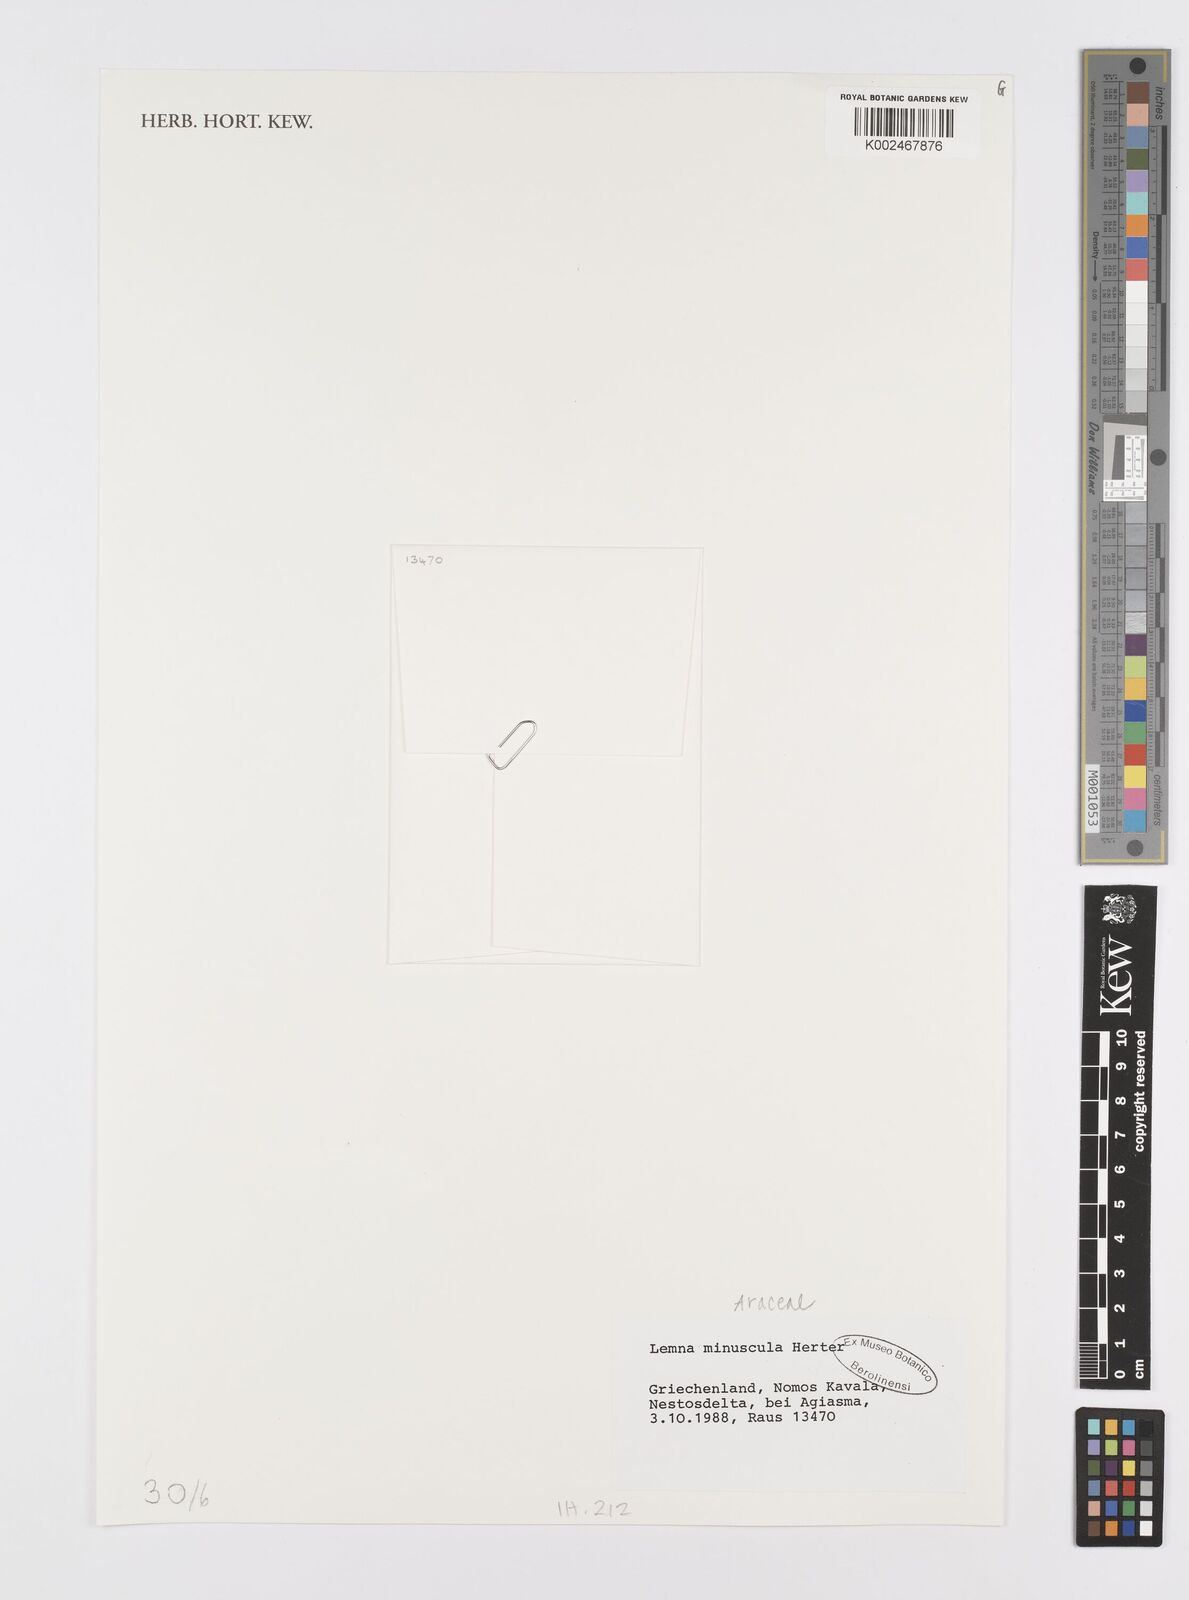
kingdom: Plantae
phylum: Tracheophyta
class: Liliopsida
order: Alismatales
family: Araceae
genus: Lemna
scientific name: Lemna minuta
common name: Least duckweed
